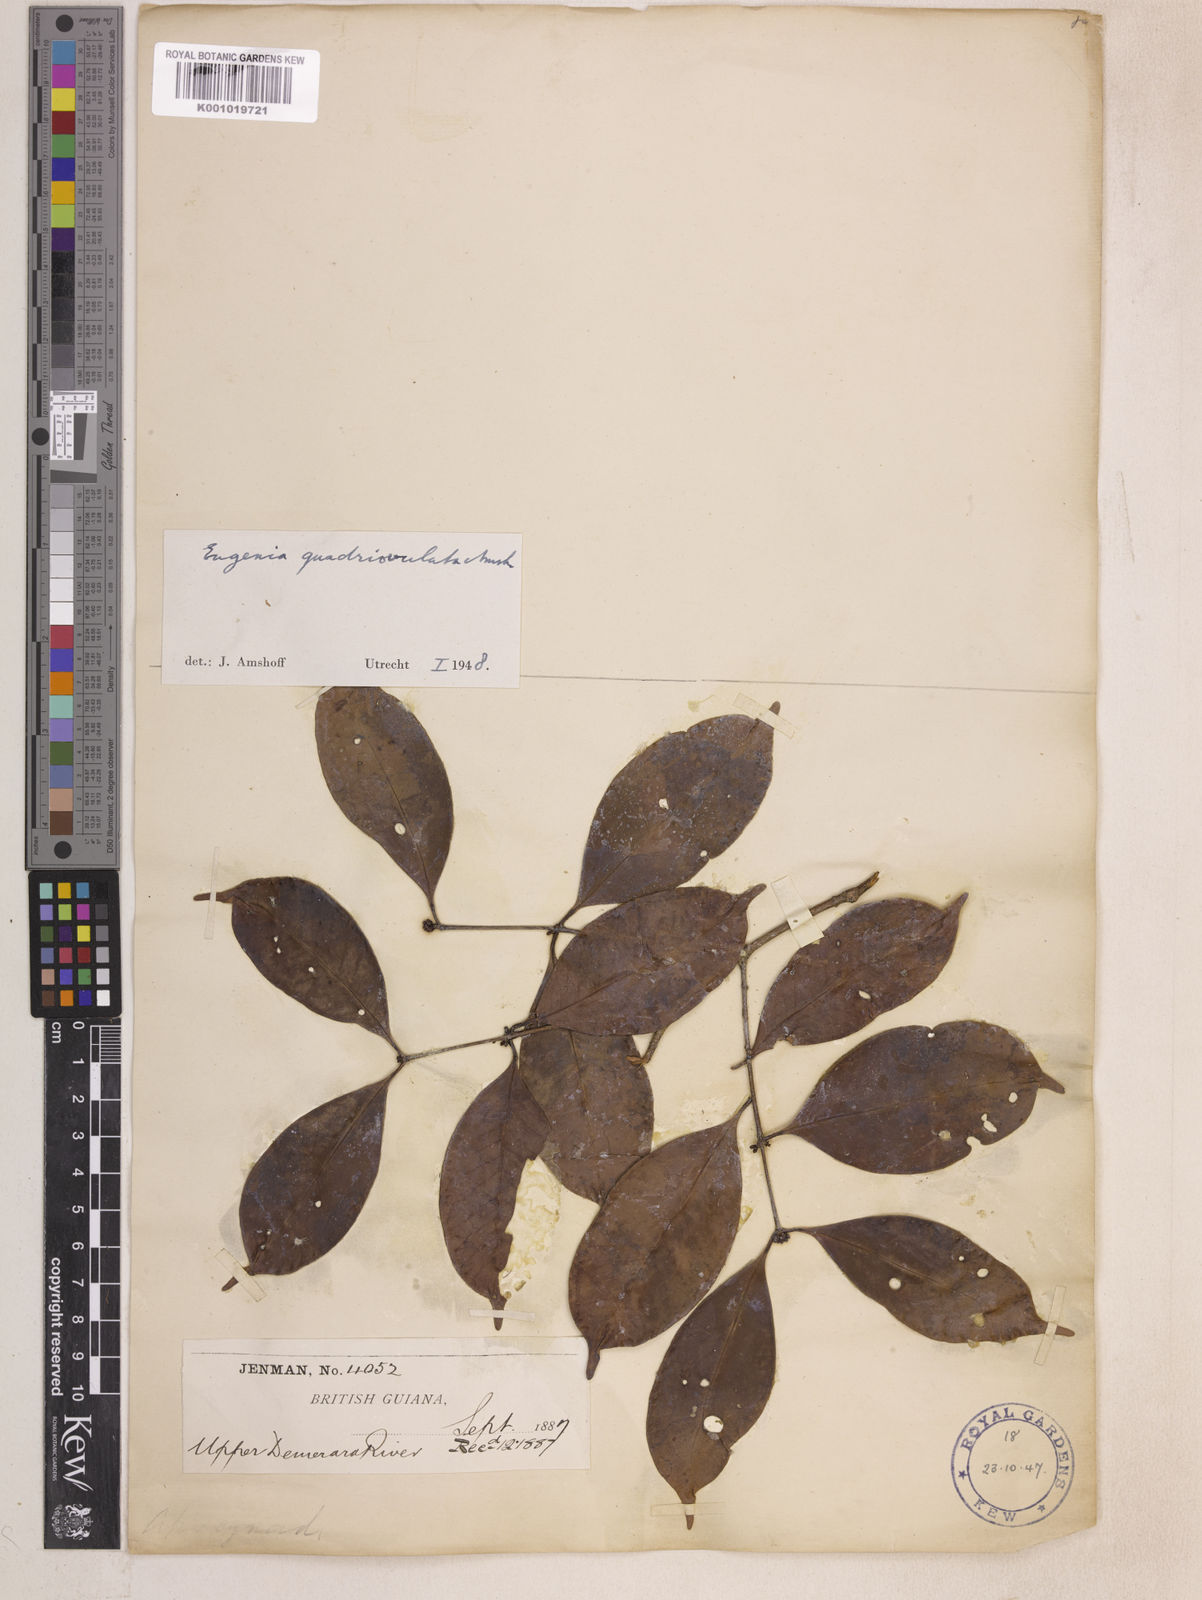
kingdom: Plantae
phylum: Tracheophyta
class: Magnoliopsida
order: Myrtales
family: Myrtaceae
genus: Eugenia
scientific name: Eugenia quadriovulata
